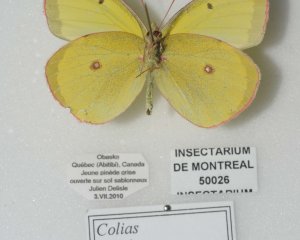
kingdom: Animalia
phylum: Arthropoda
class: Insecta
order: Lepidoptera
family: Pieridae
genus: Colias
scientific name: Colias interior
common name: Pink-edged Sulphur
